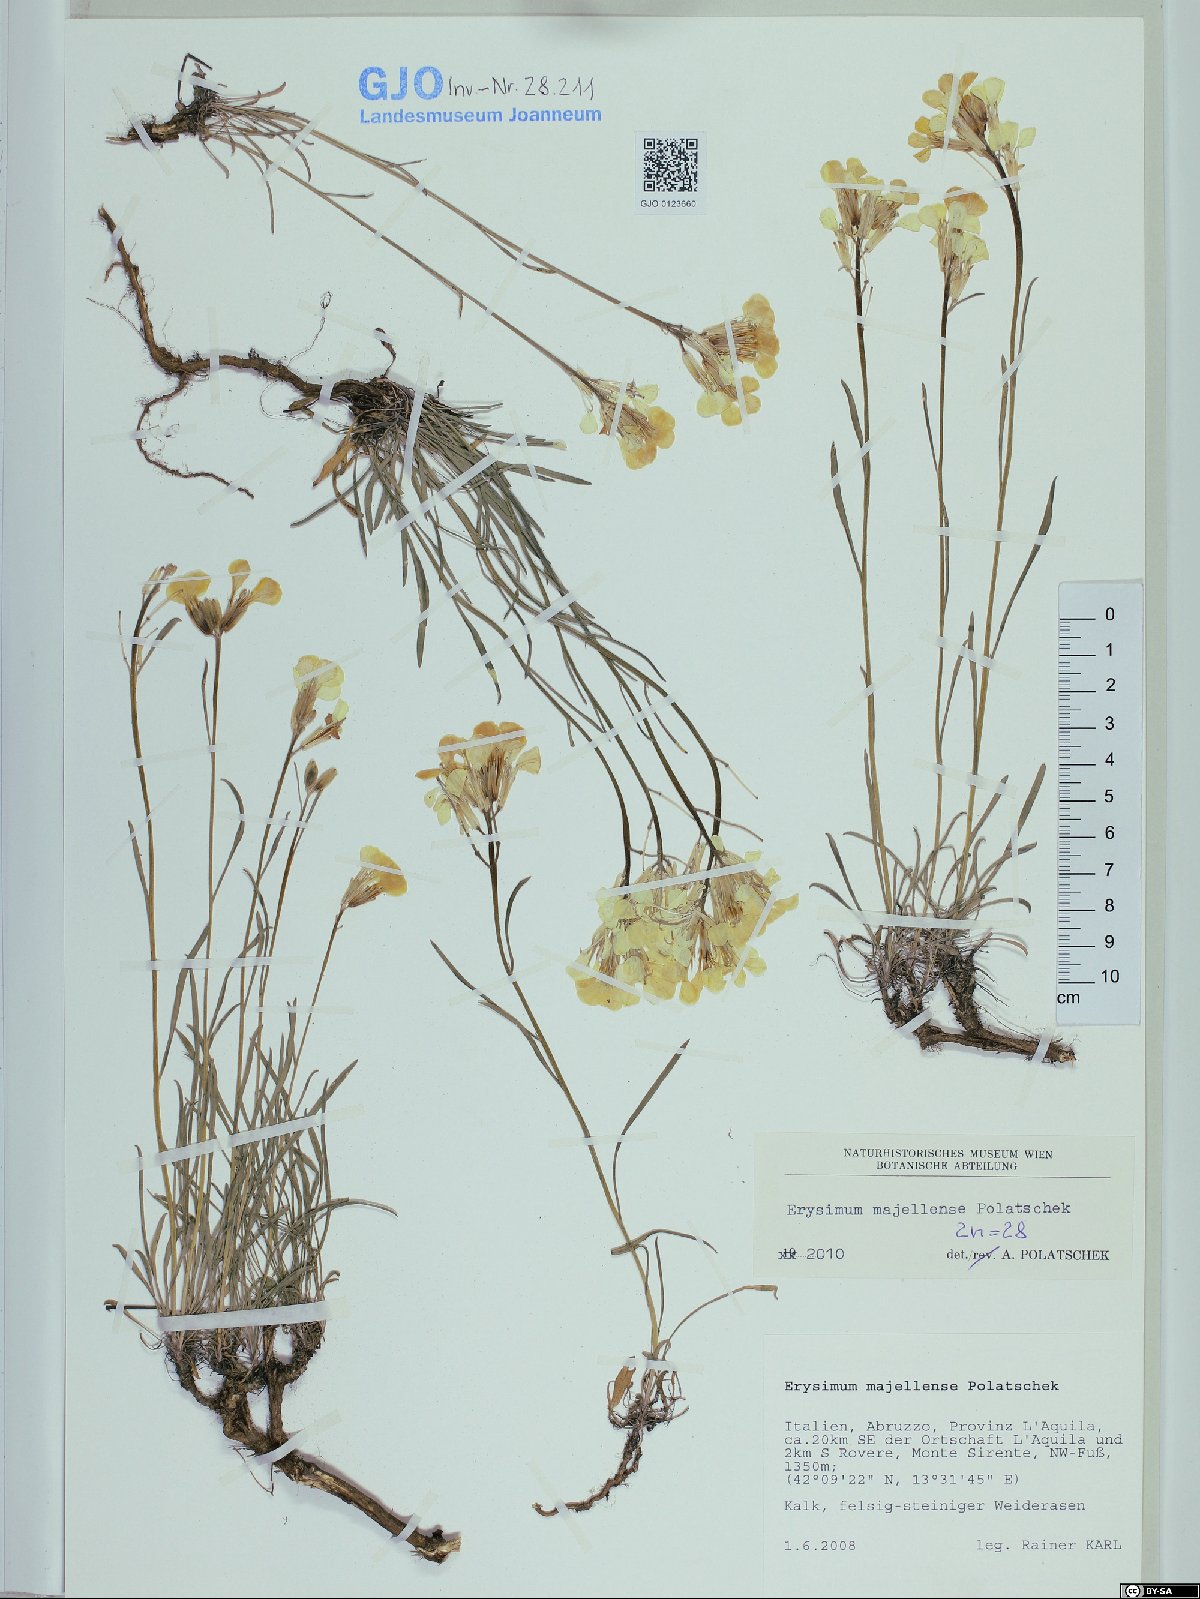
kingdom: Plantae
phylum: Tracheophyta
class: Magnoliopsida
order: Brassicales
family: Brassicaceae
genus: Erysimum
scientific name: Erysimum majellense
